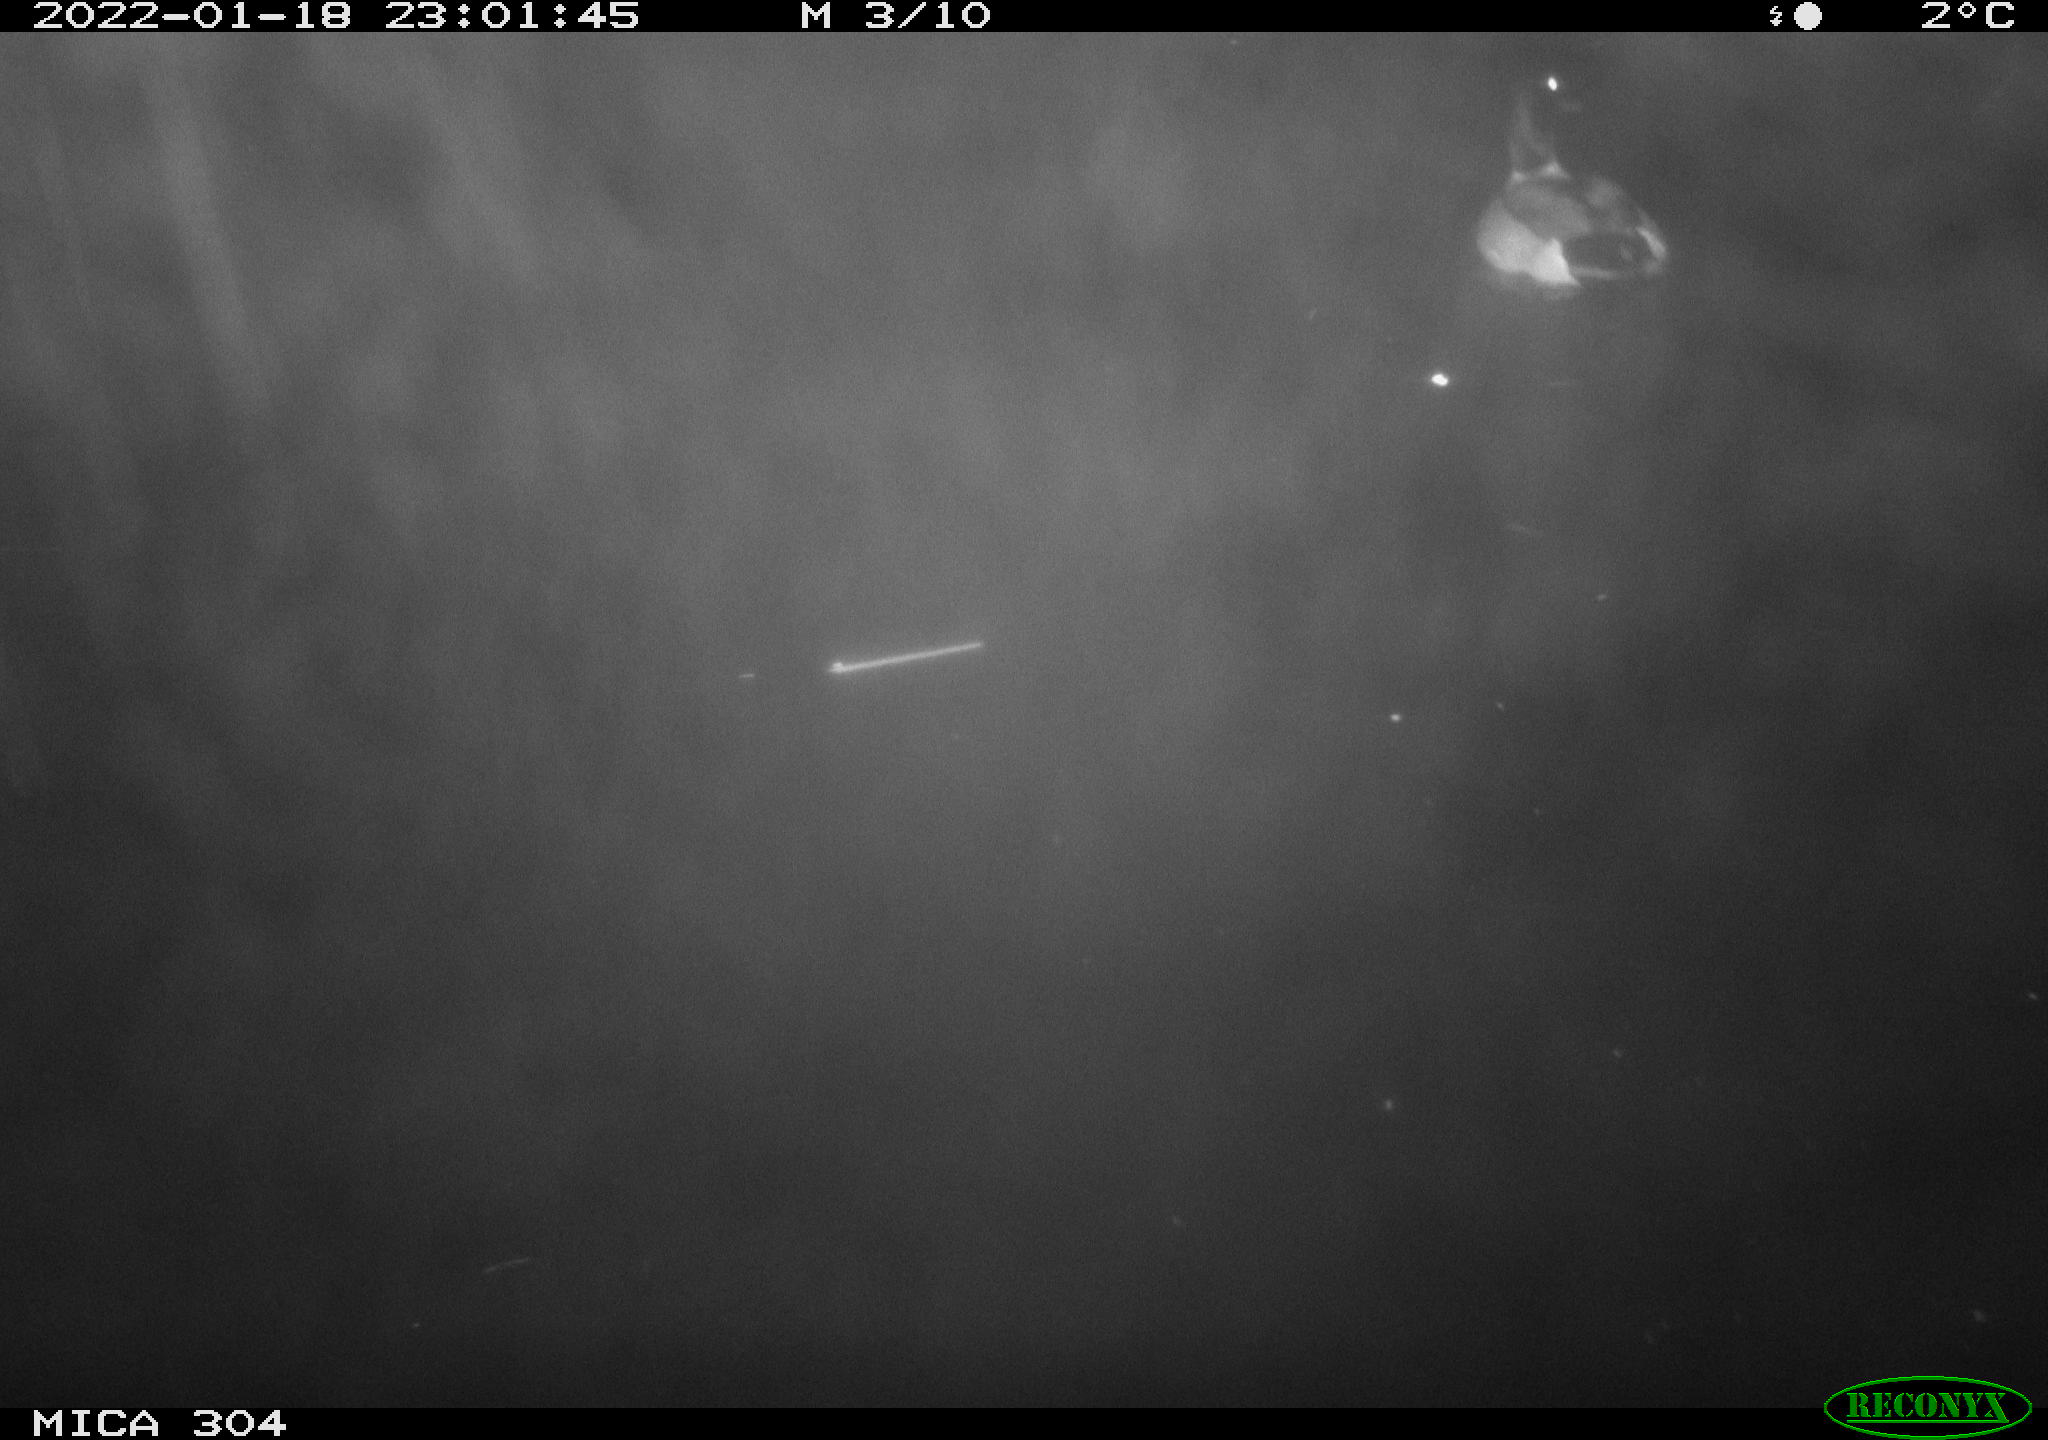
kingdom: Animalia
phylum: Chordata
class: Aves
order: Anseriformes
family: Anatidae
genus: Anas
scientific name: Anas platyrhynchos
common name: Mallard
